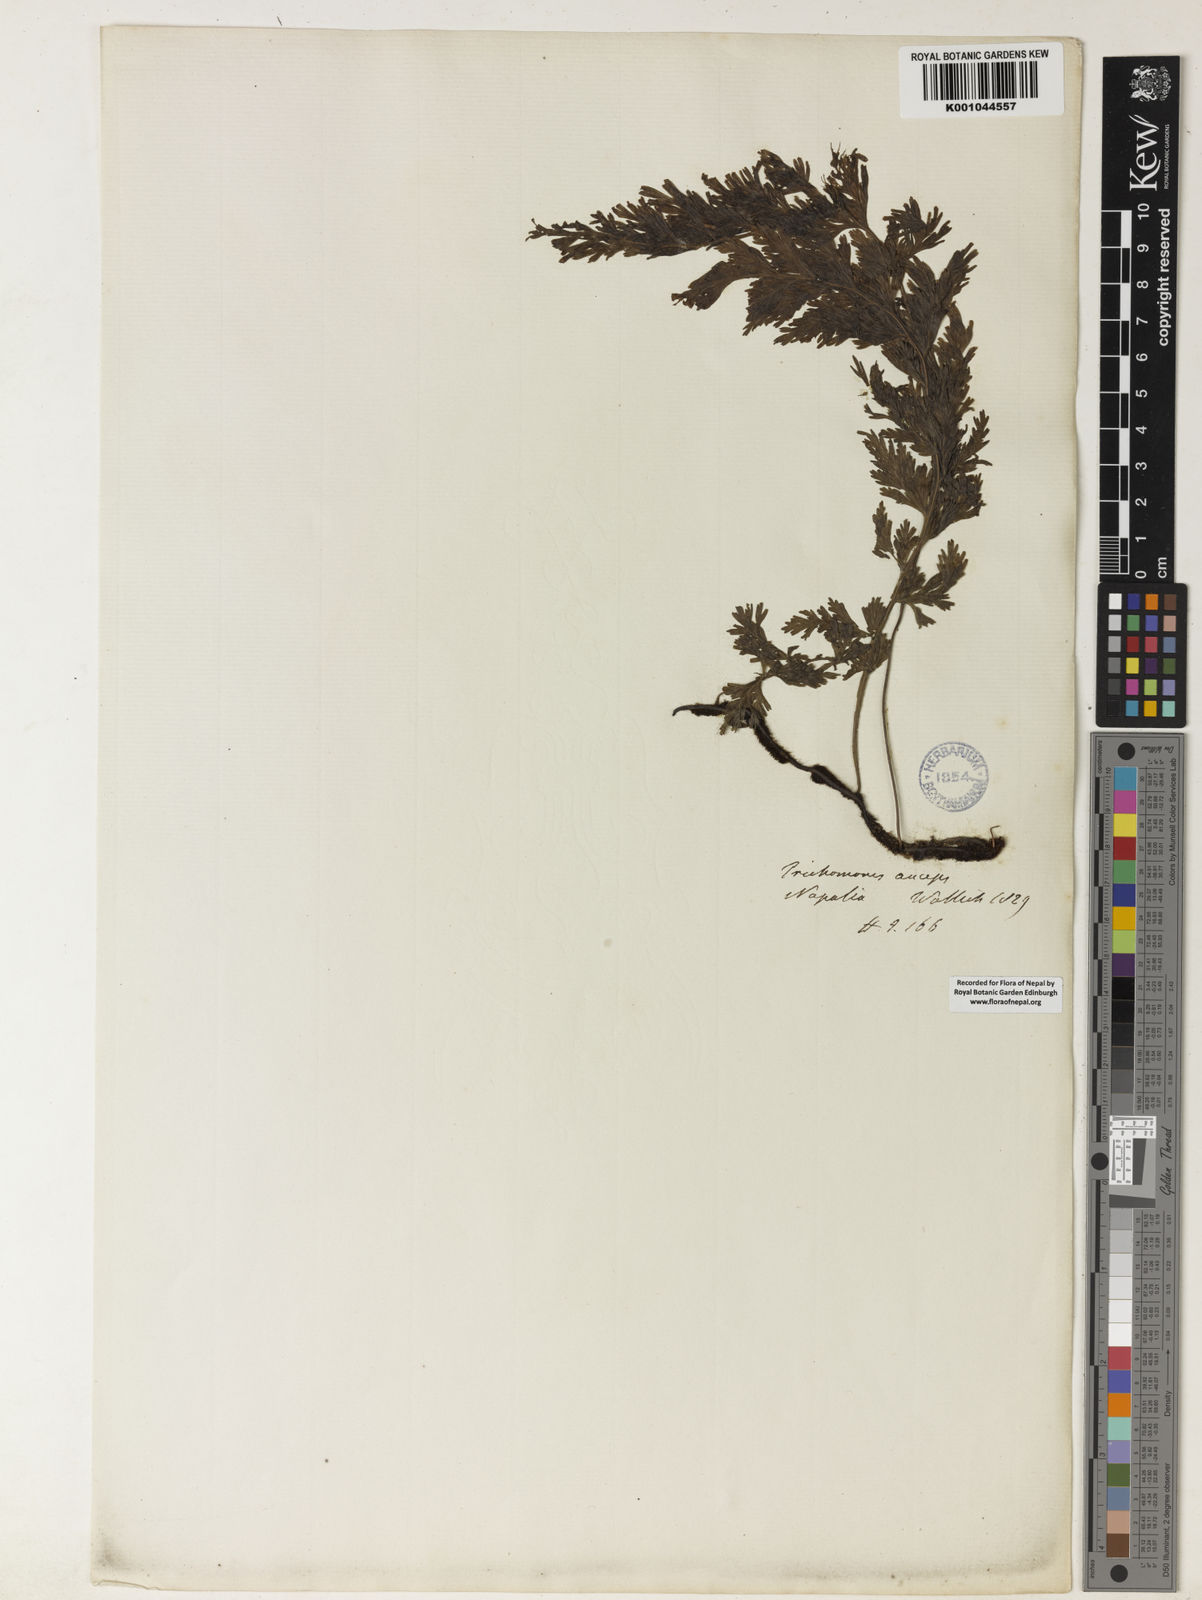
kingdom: Plantae
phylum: Tracheophyta
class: Polypodiopsida
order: Hymenophyllales
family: Hymenophyllaceae
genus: Vandenboschia
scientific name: Vandenboschia radicans
